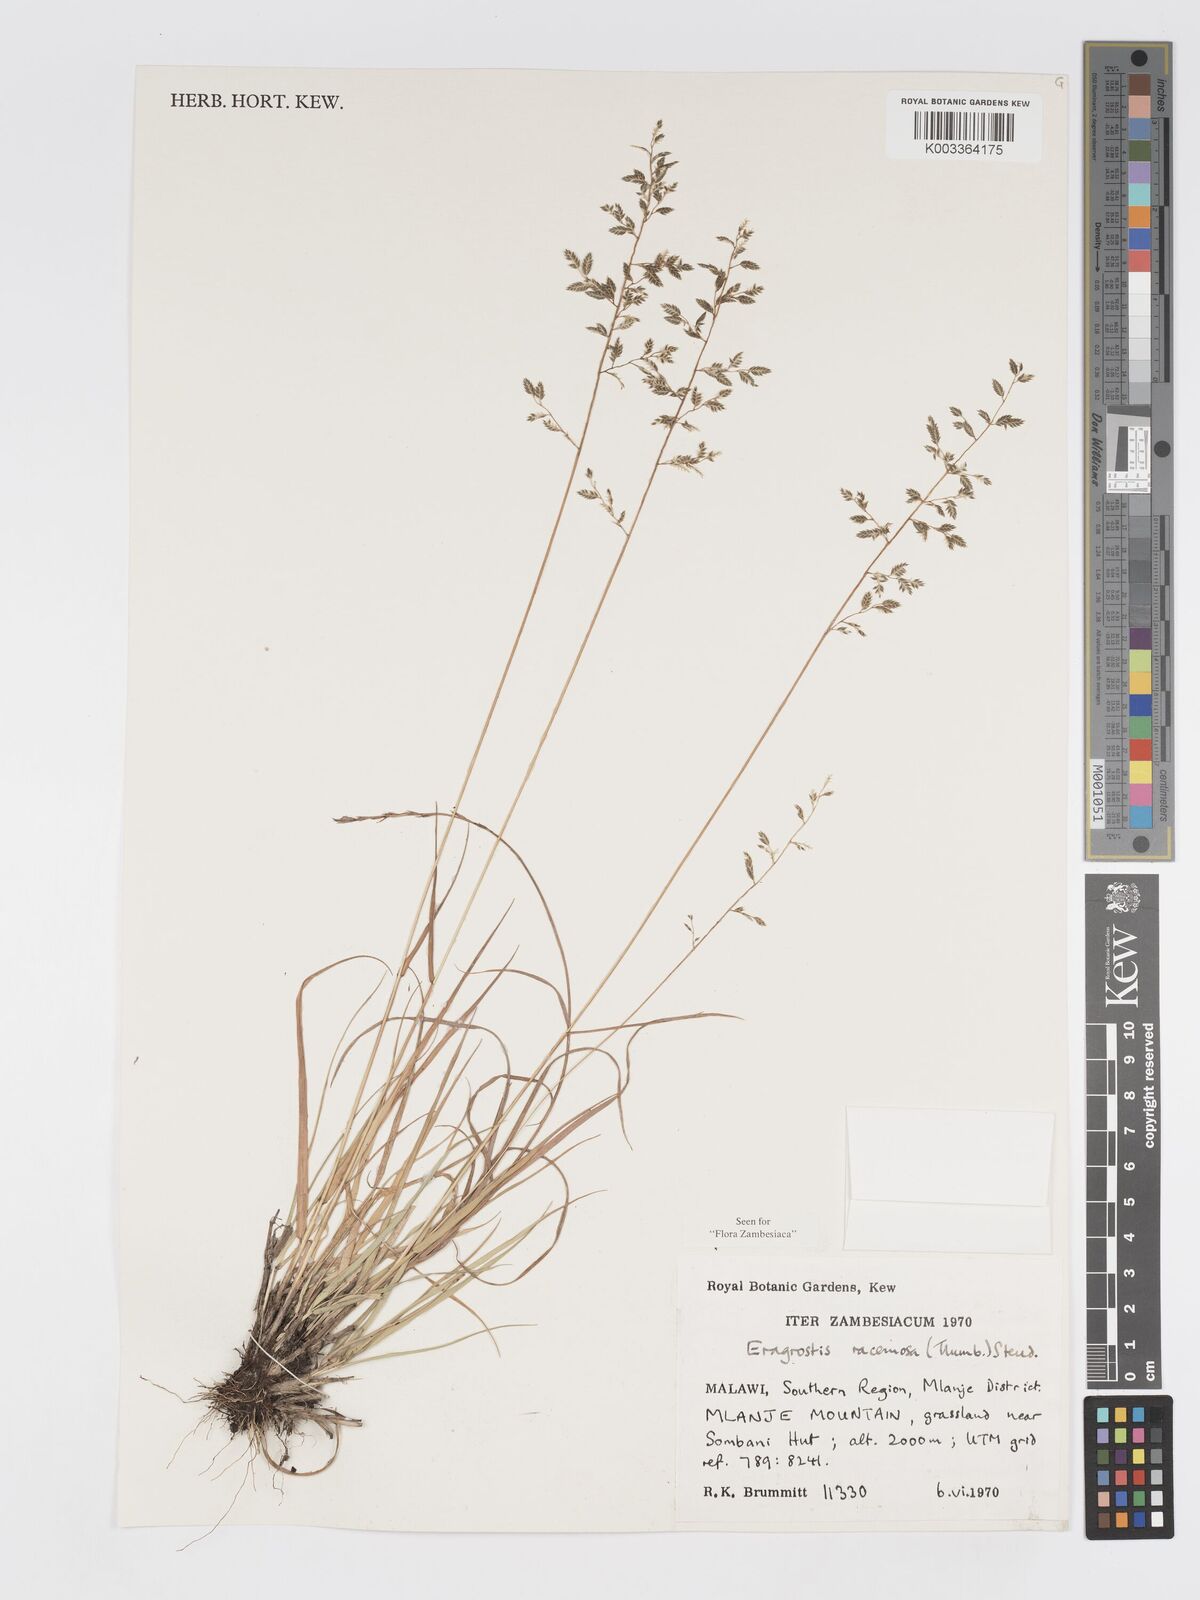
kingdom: Plantae
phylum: Tracheophyta
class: Liliopsida
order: Poales
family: Poaceae
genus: Eragrostis
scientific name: Eragrostis racemosa
